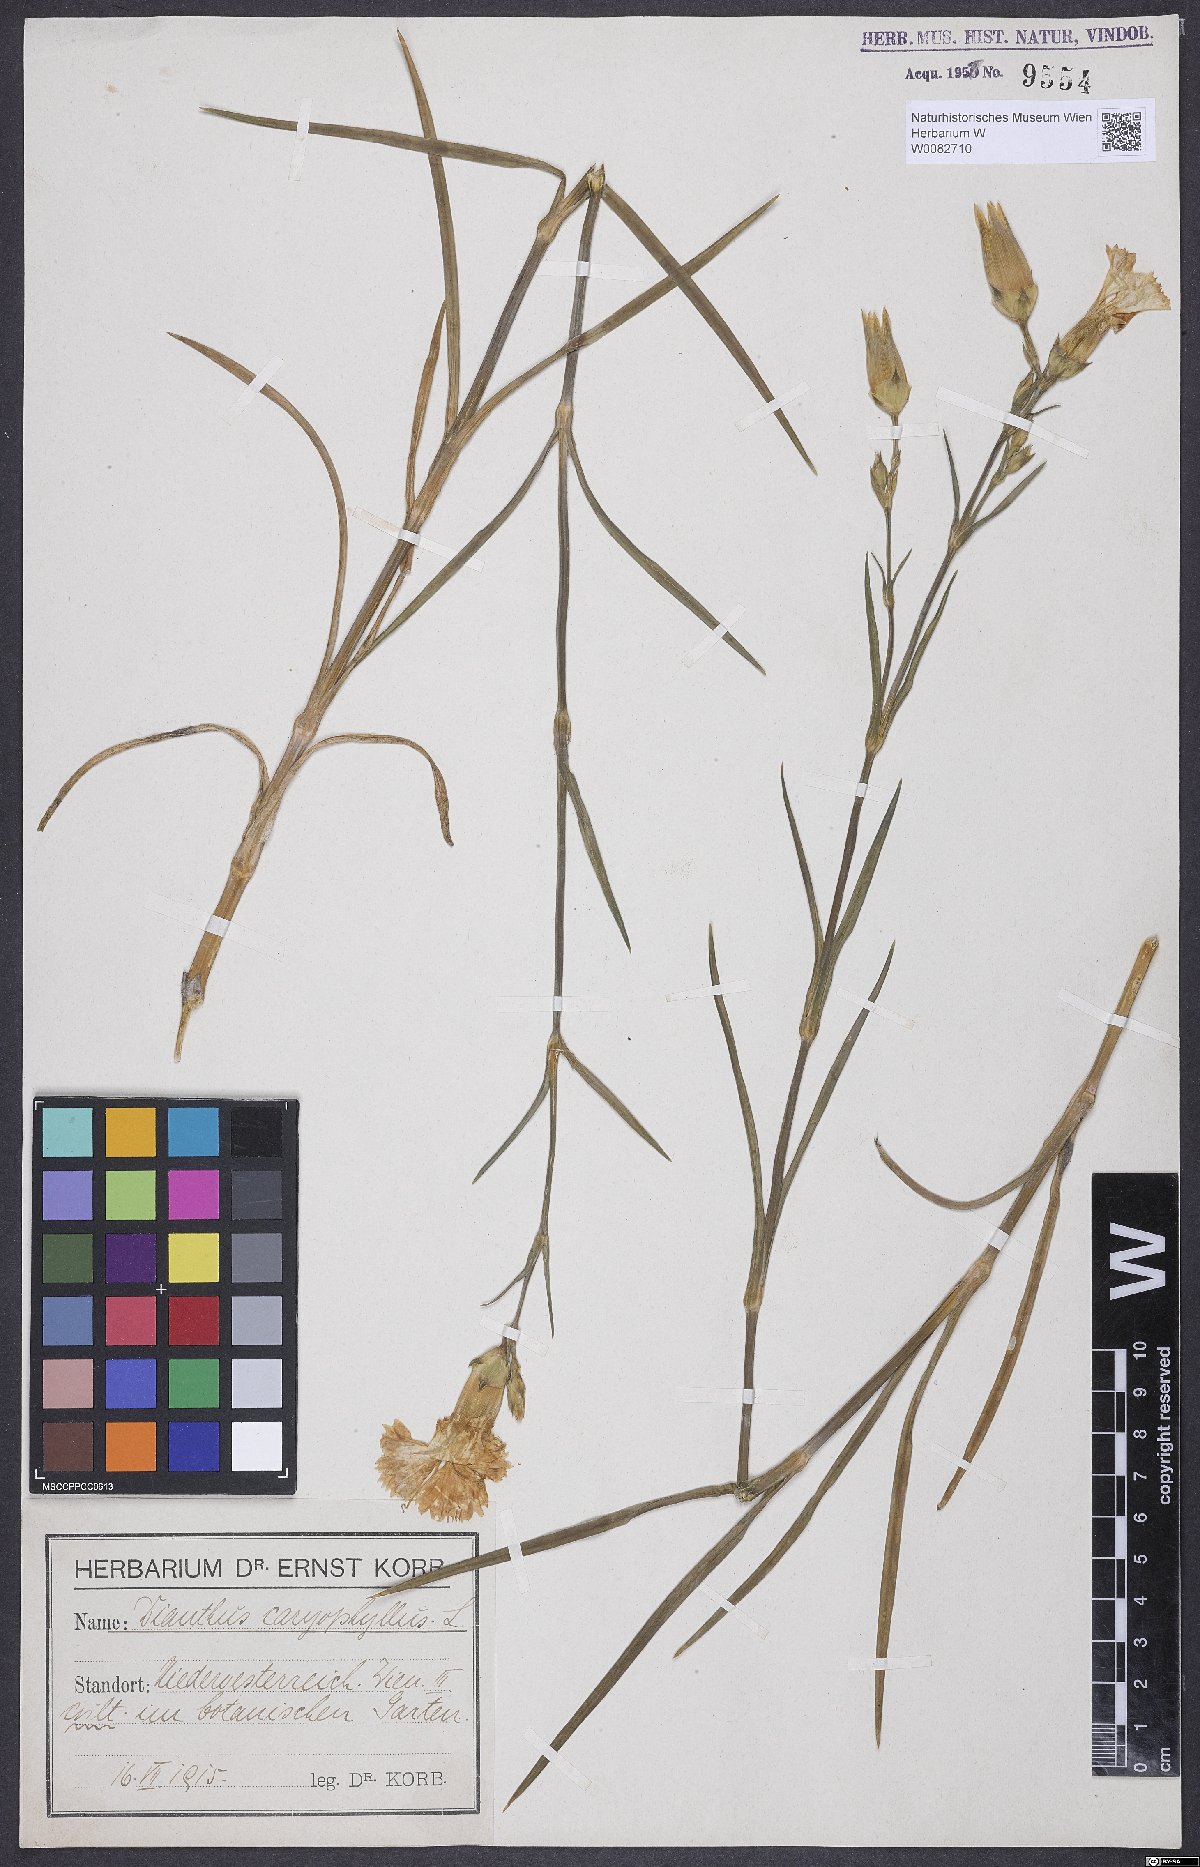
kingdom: Plantae
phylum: Tracheophyta
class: Magnoliopsida
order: Caryophyllales
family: Caryophyllaceae
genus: Dianthus
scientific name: Dianthus caryophyllus
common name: Clove pink
